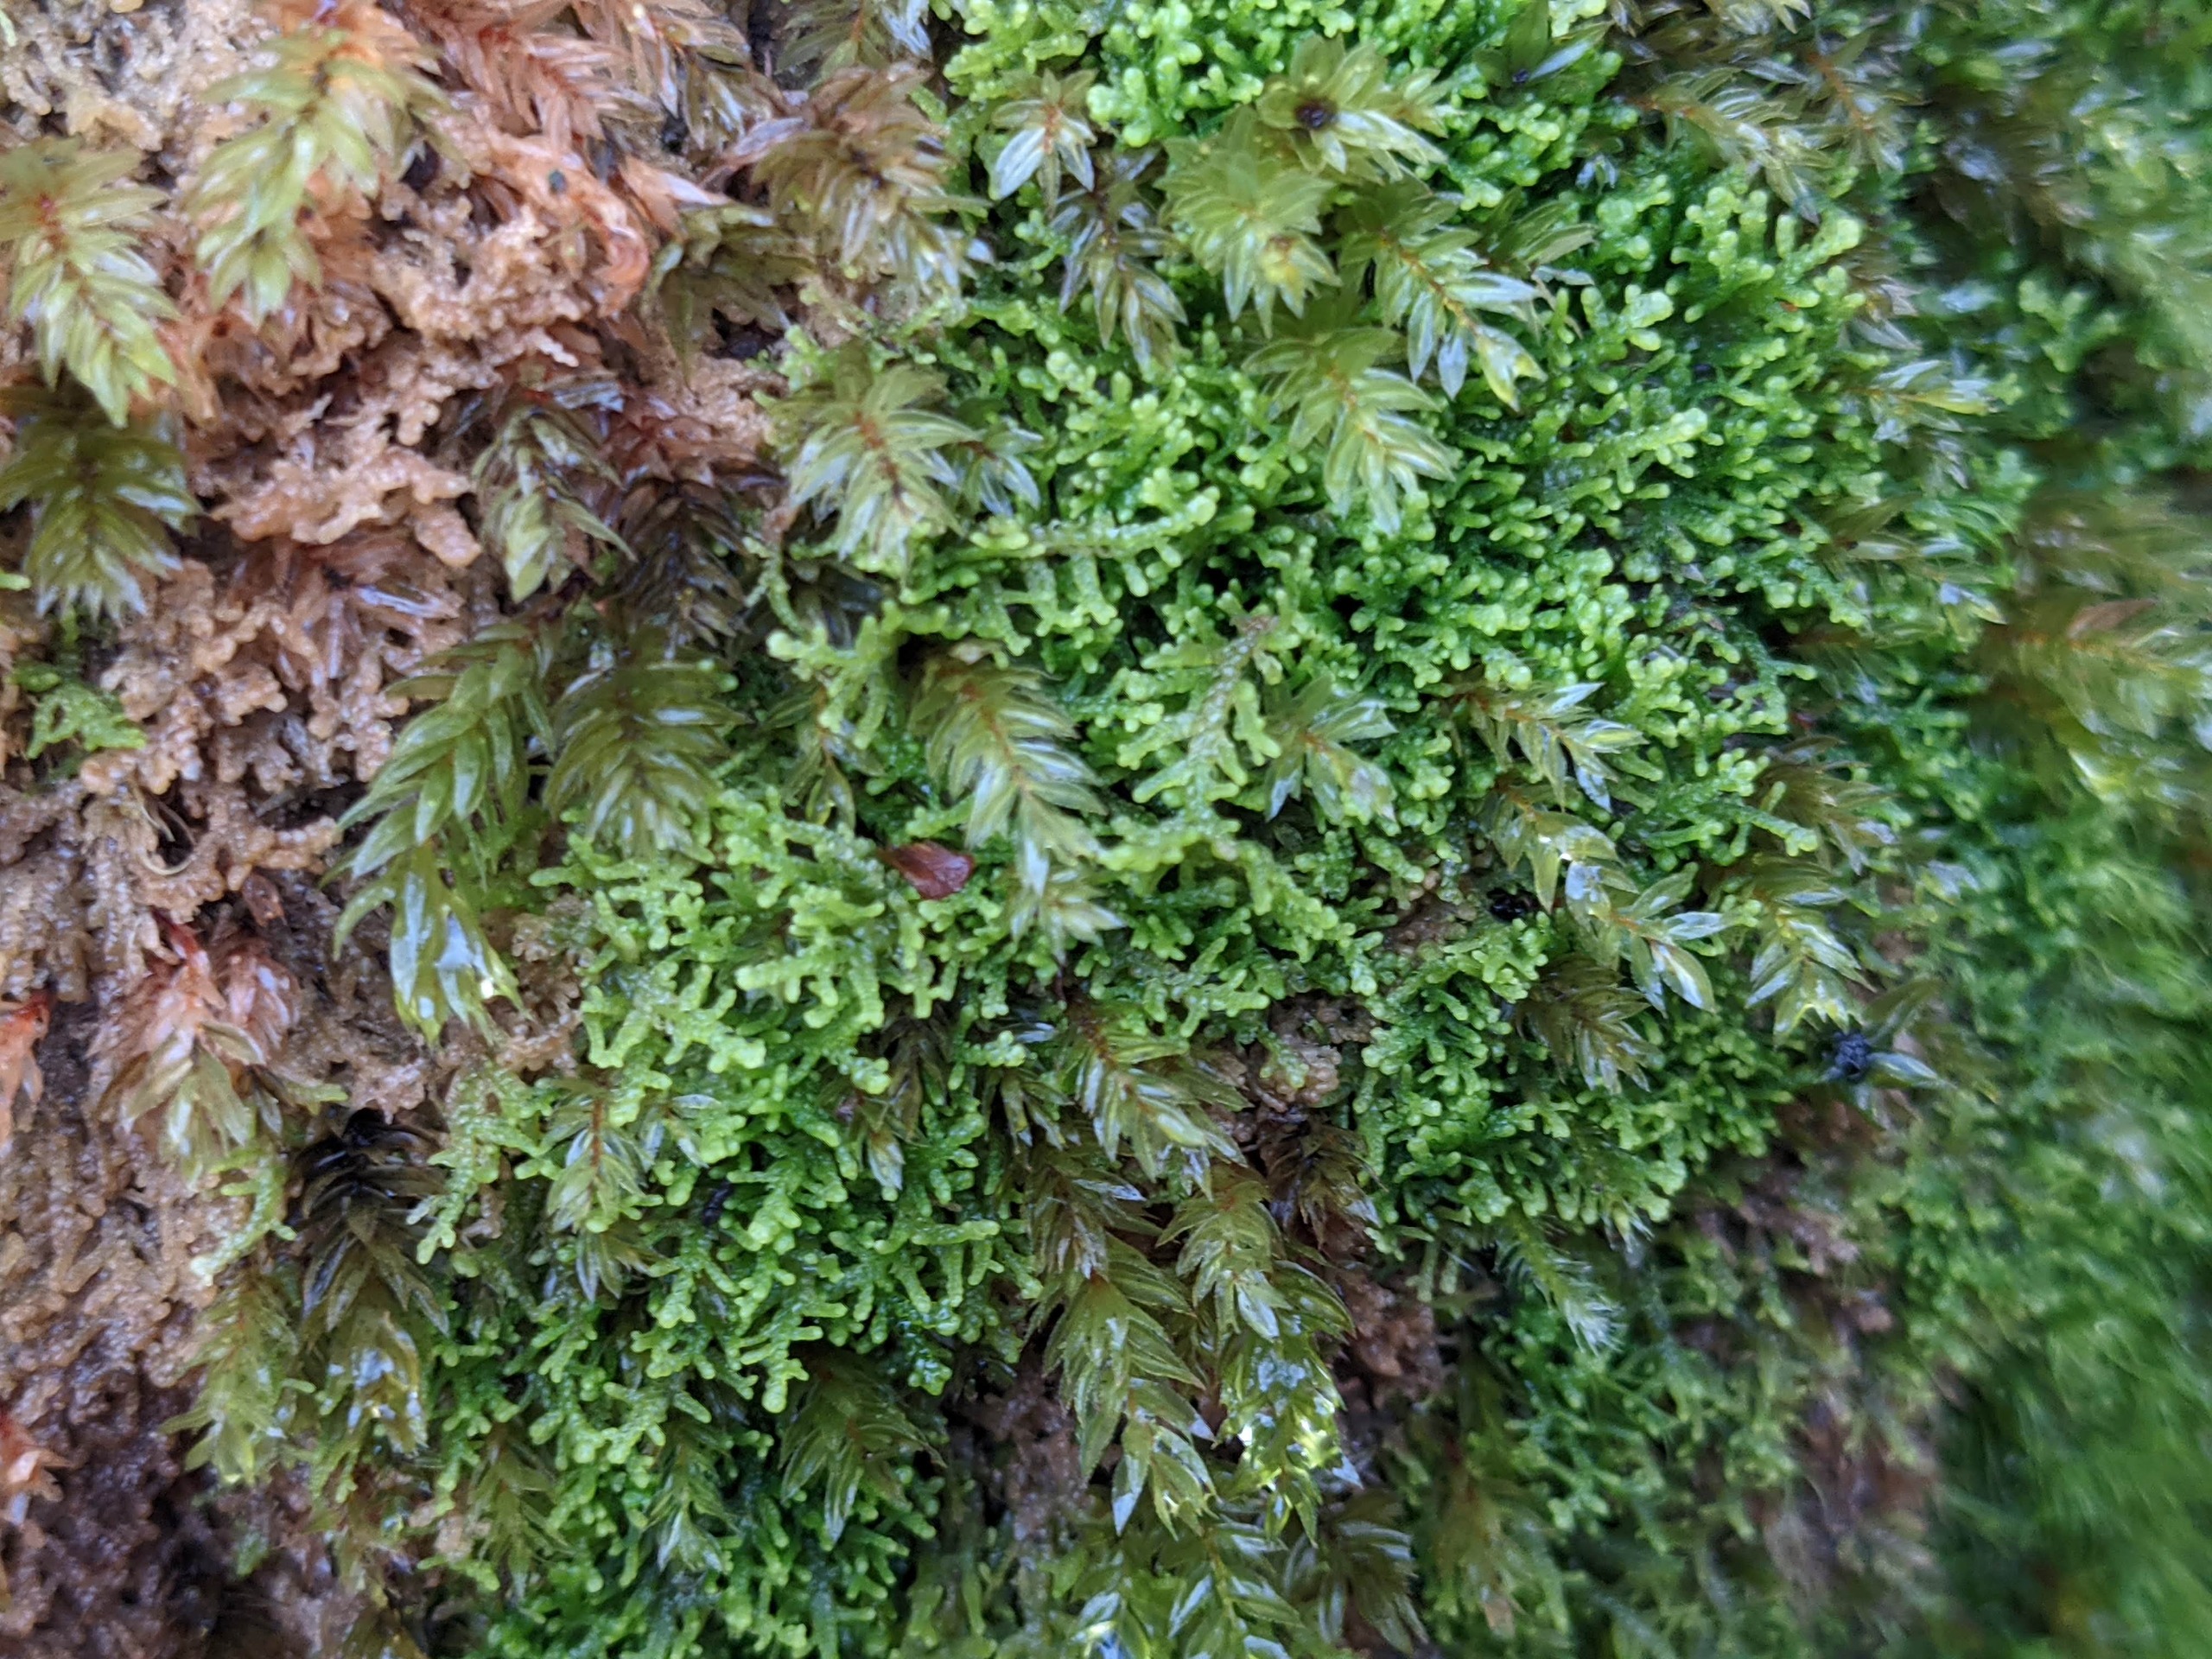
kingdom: Plantae
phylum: Marchantiophyta
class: Jungermanniopsida
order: Jungermanniales
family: Lepidoziaceae
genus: Lepidozia
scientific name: Lepidozia reptans
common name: Krybende fingermos
